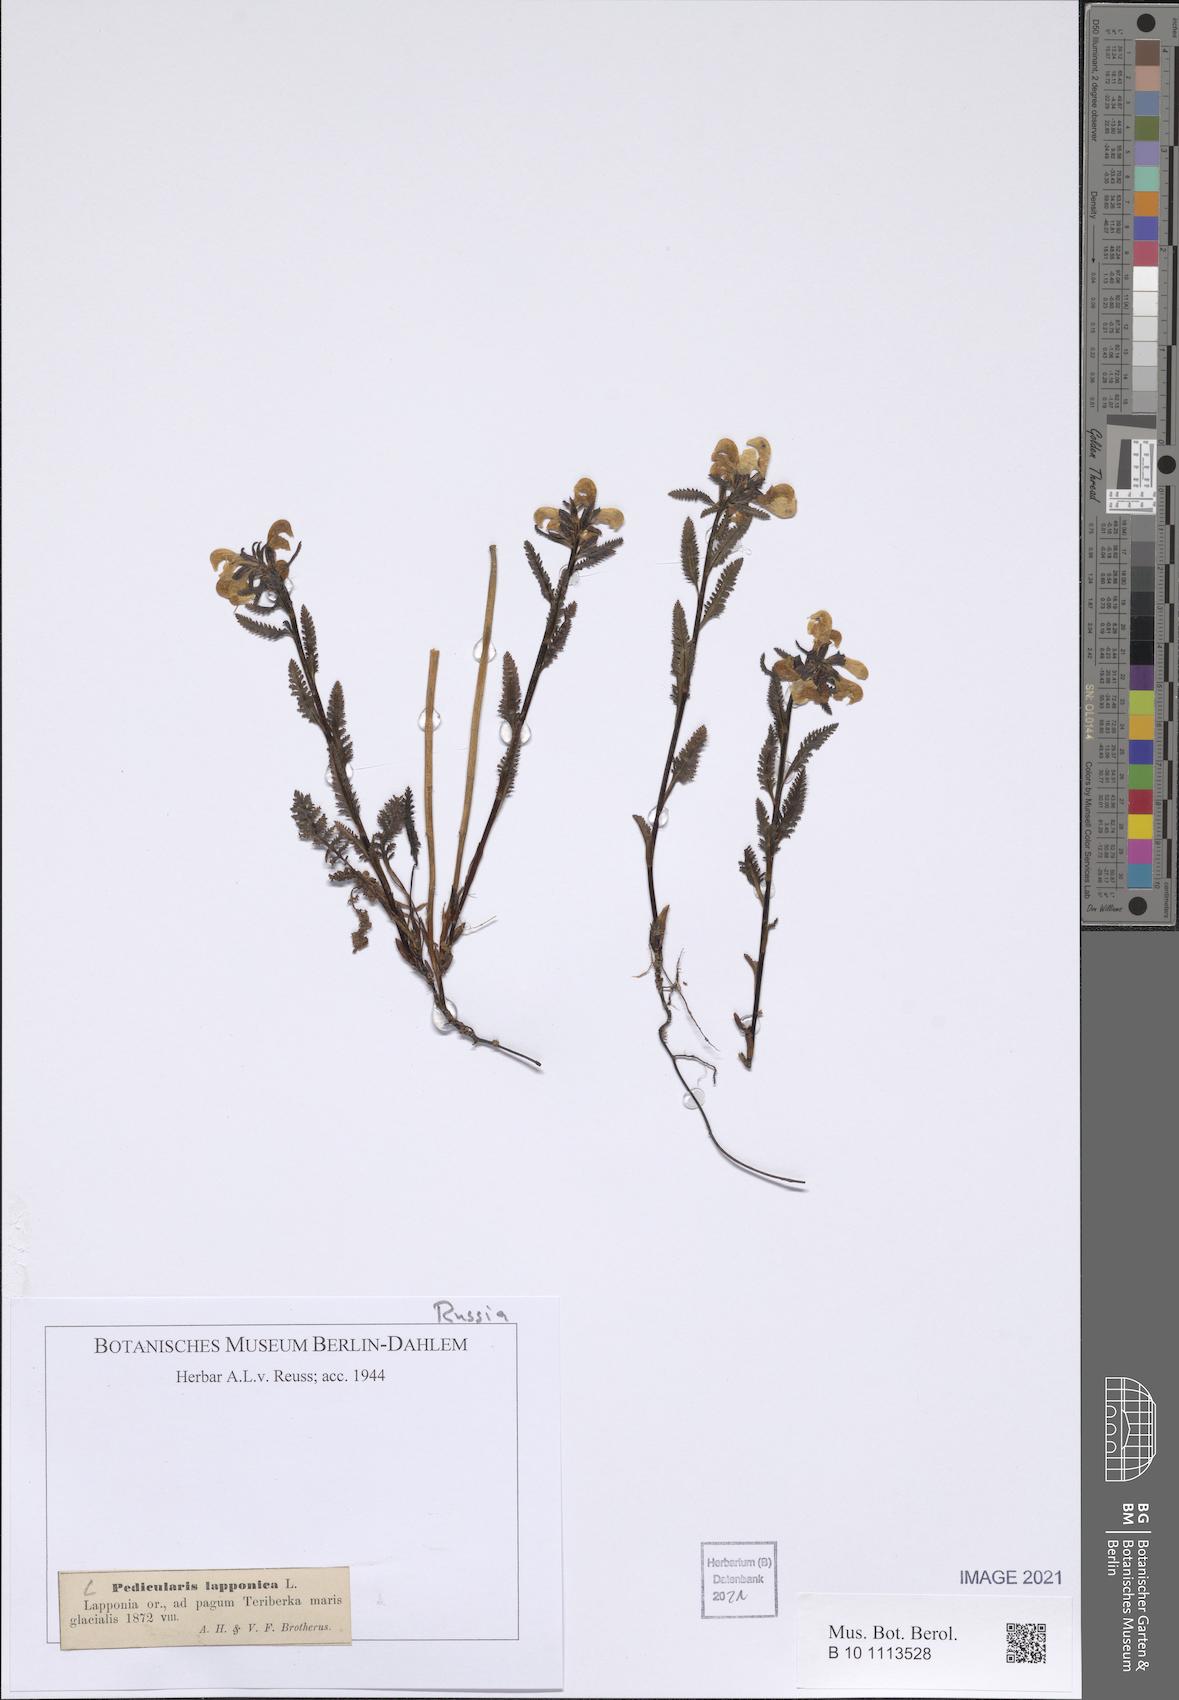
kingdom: Plantae
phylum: Tracheophyta
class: Magnoliopsida
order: Lamiales
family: Orobanchaceae
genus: Pedicularis
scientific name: Pedicularis lapponica
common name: Lapland lousewort
